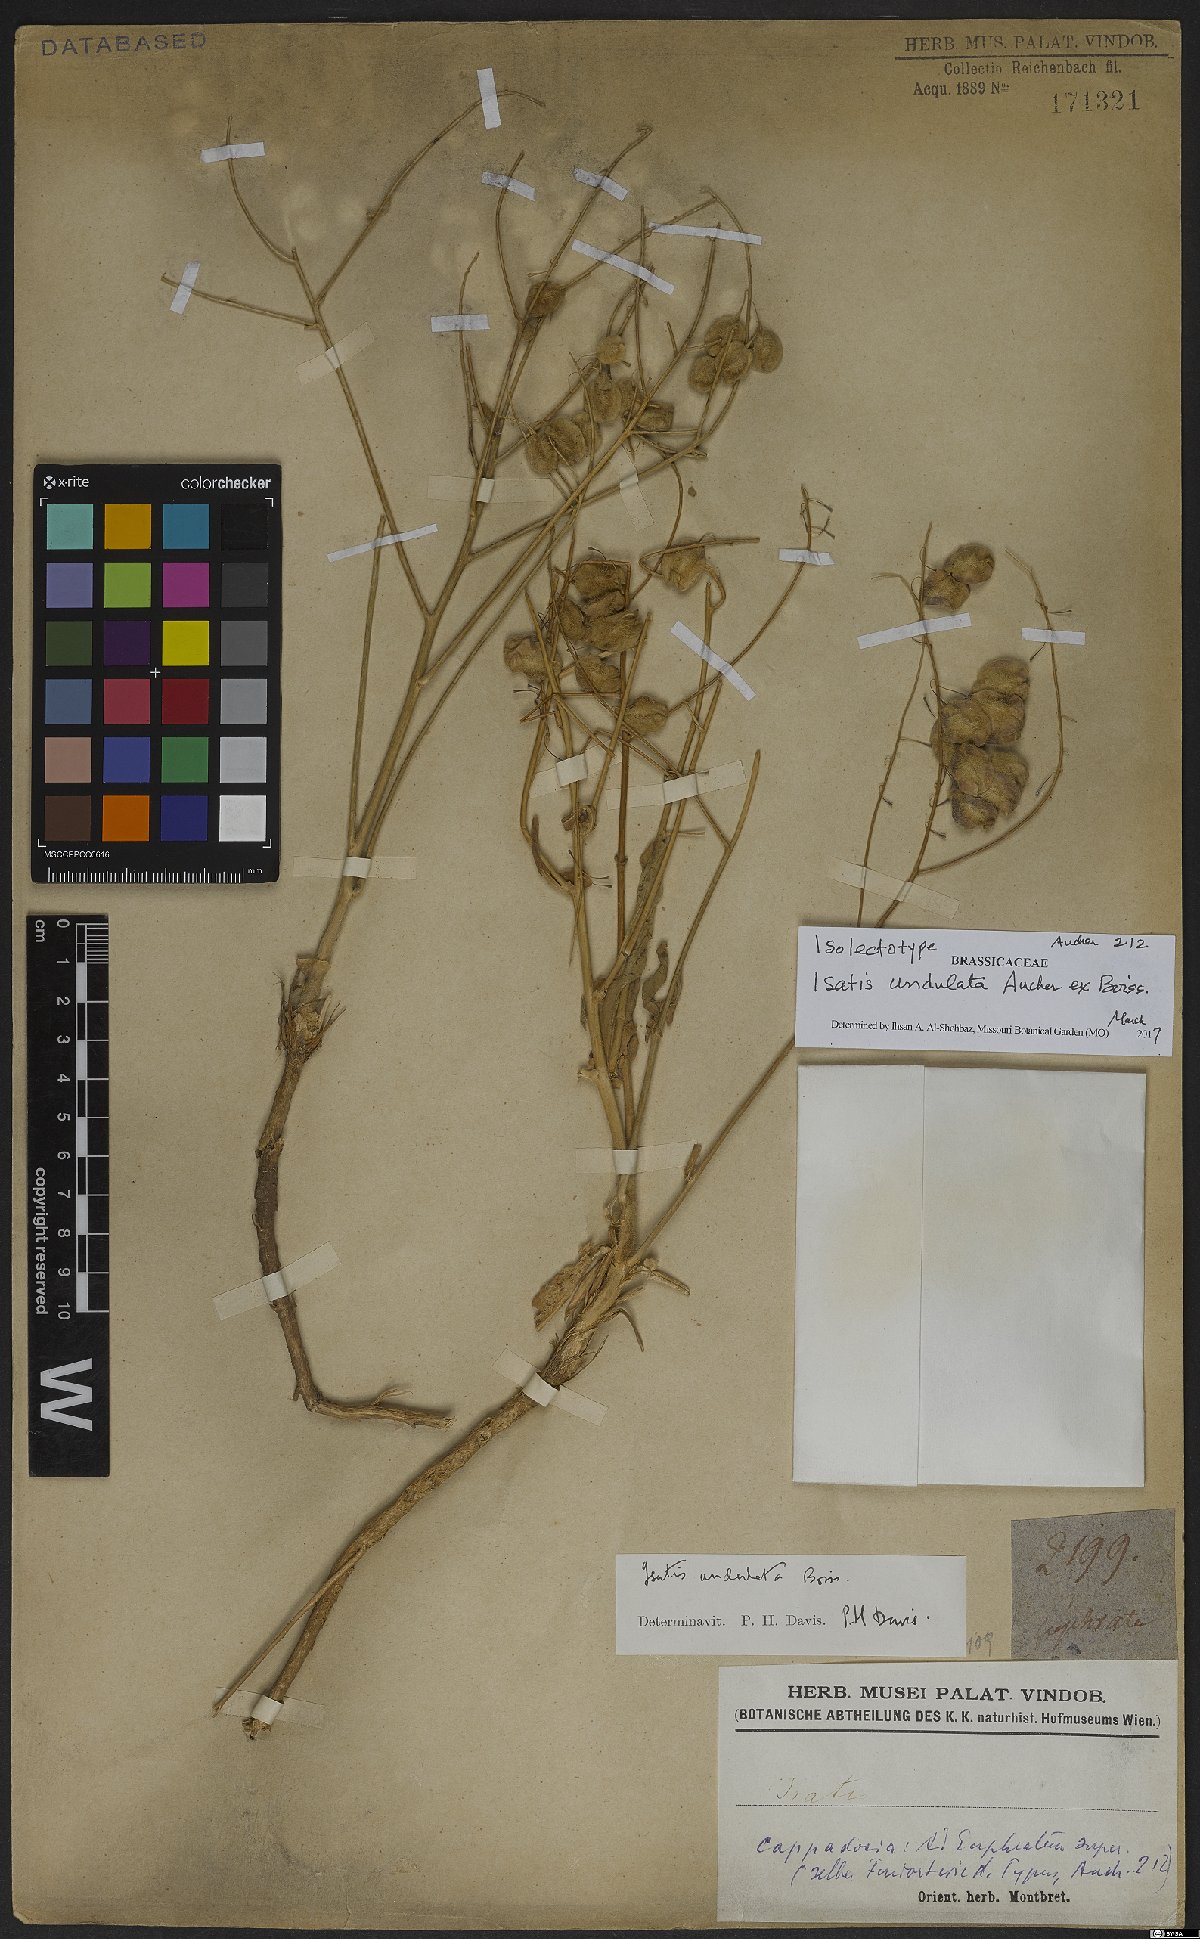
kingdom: Plantae
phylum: Tracheophyta
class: Magnoliopsida
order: Brassicales
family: Brassicaceae
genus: Isatis
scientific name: Isatis undulata
